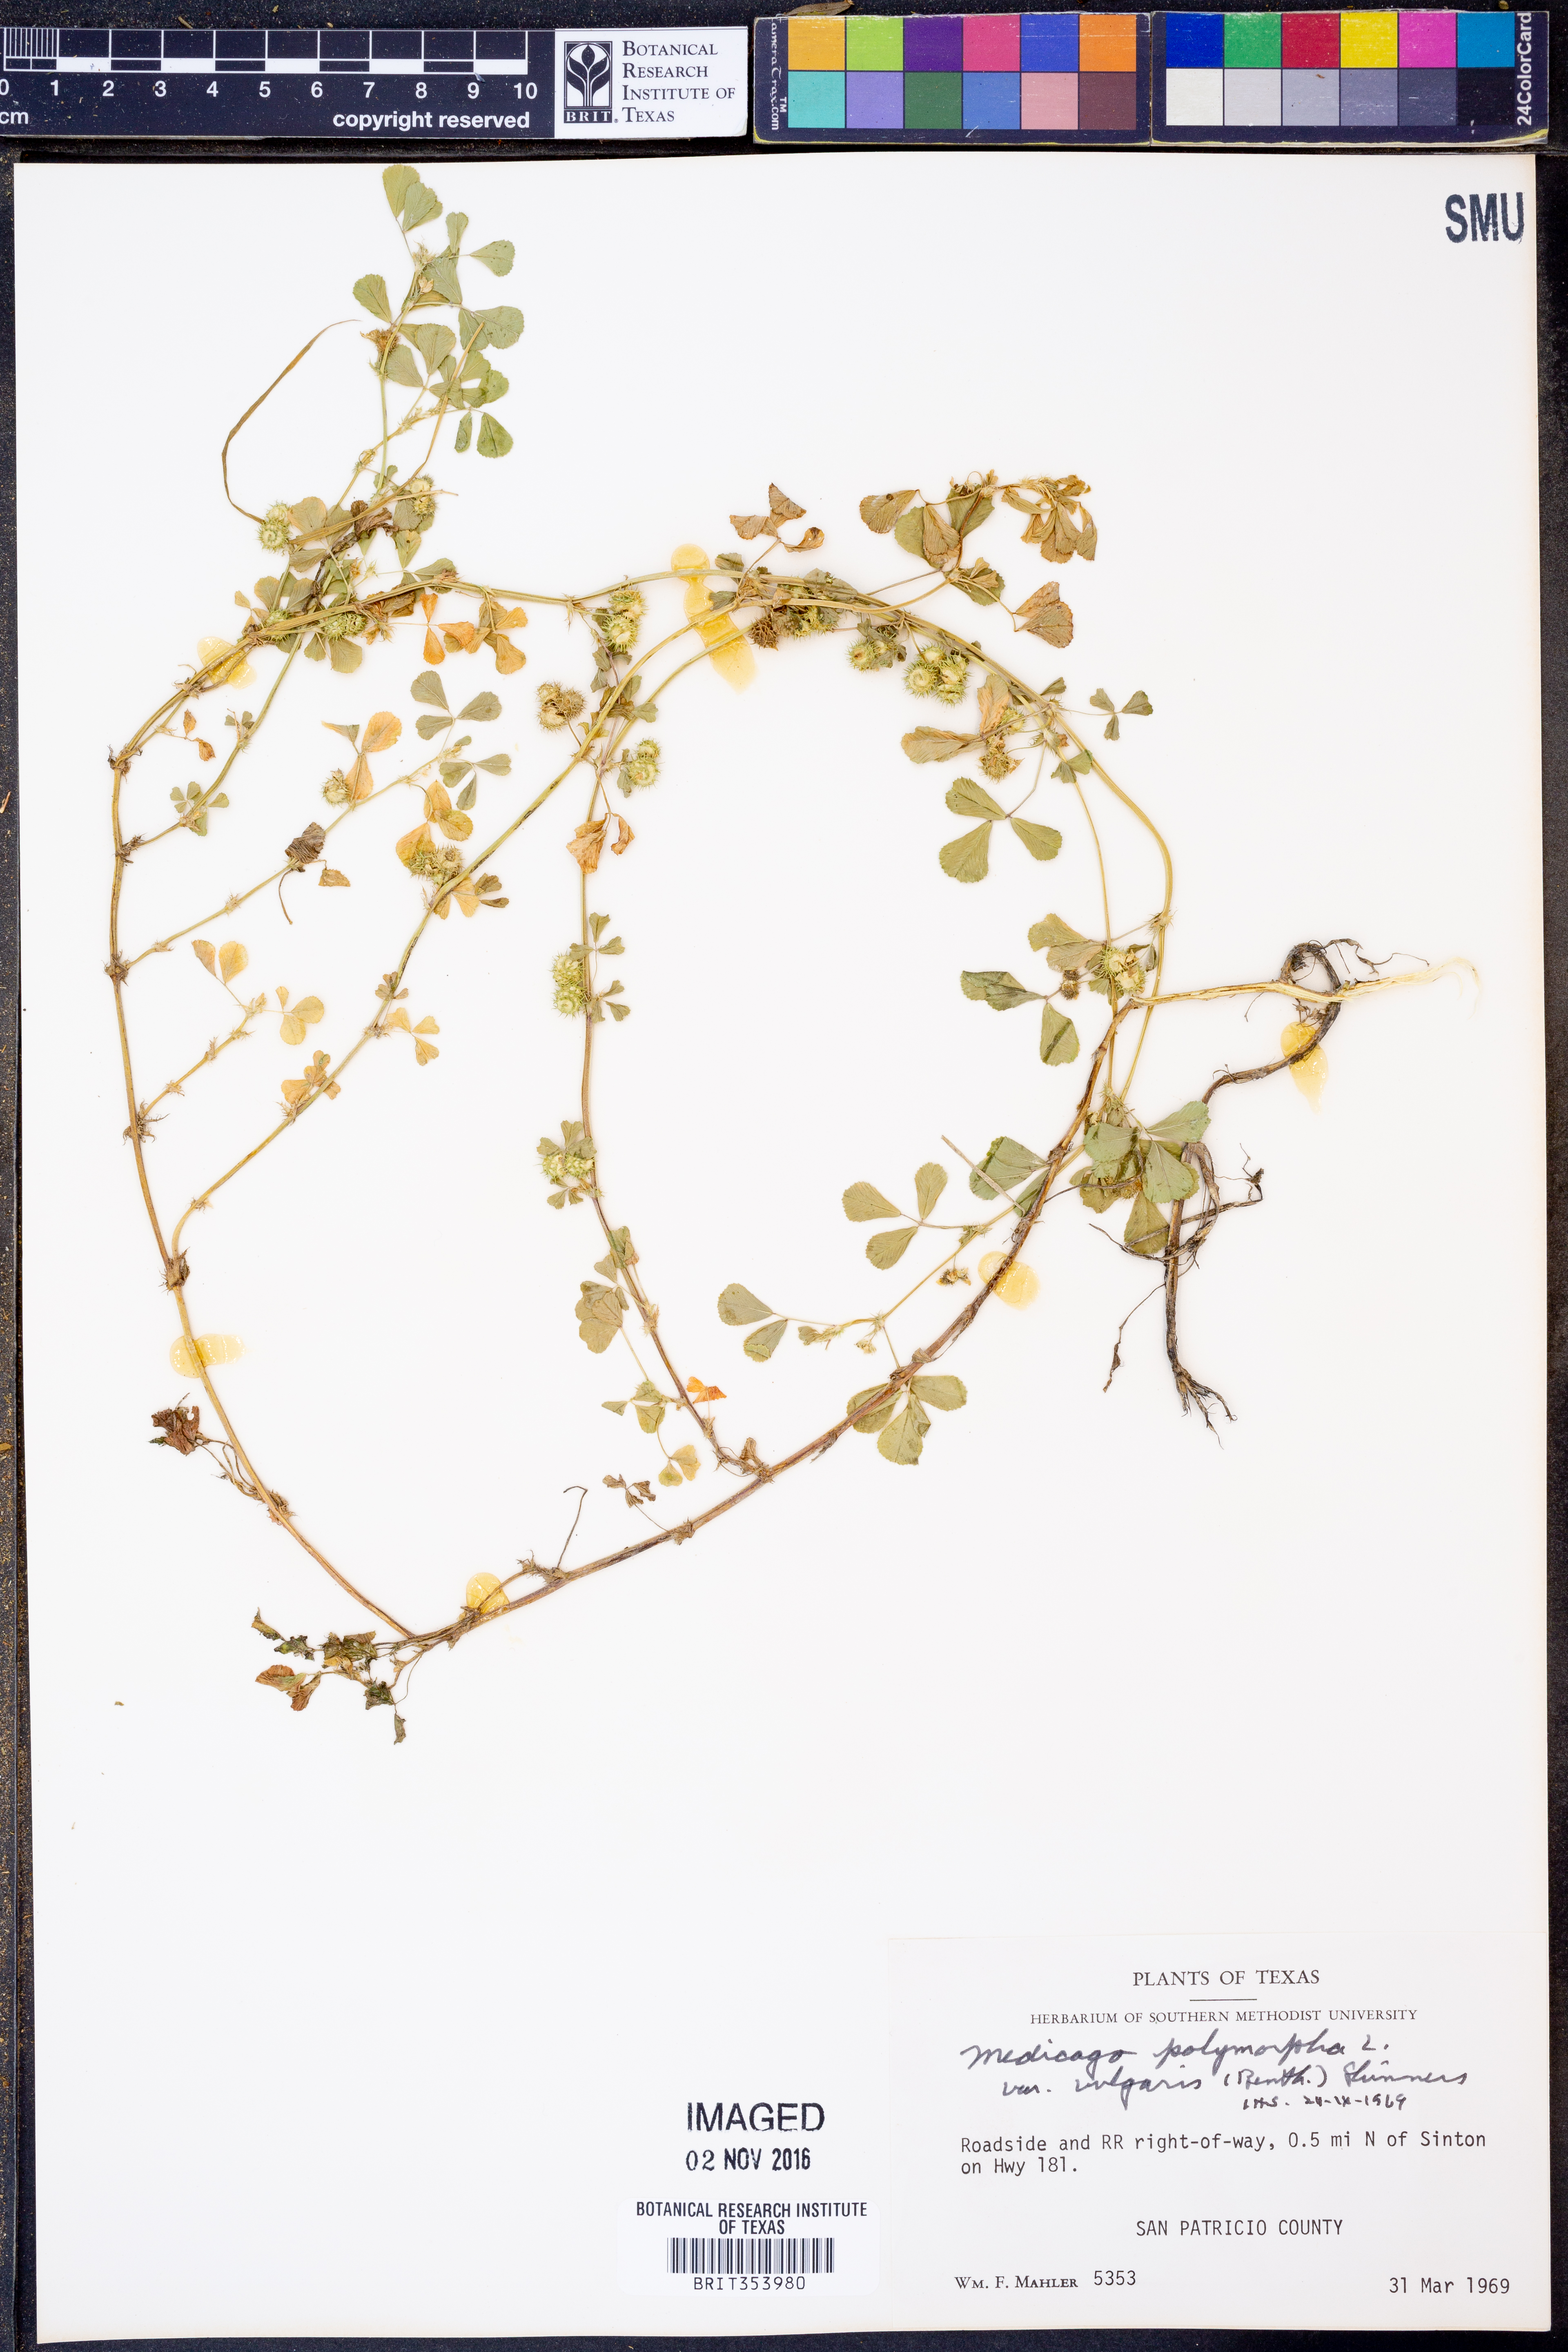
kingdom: Plantae
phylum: Tracheophyta
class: Magnoliopsida
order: Fabales
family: Fabaceae
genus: Medicago
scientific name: Medicago polymorpha
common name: Burclover
